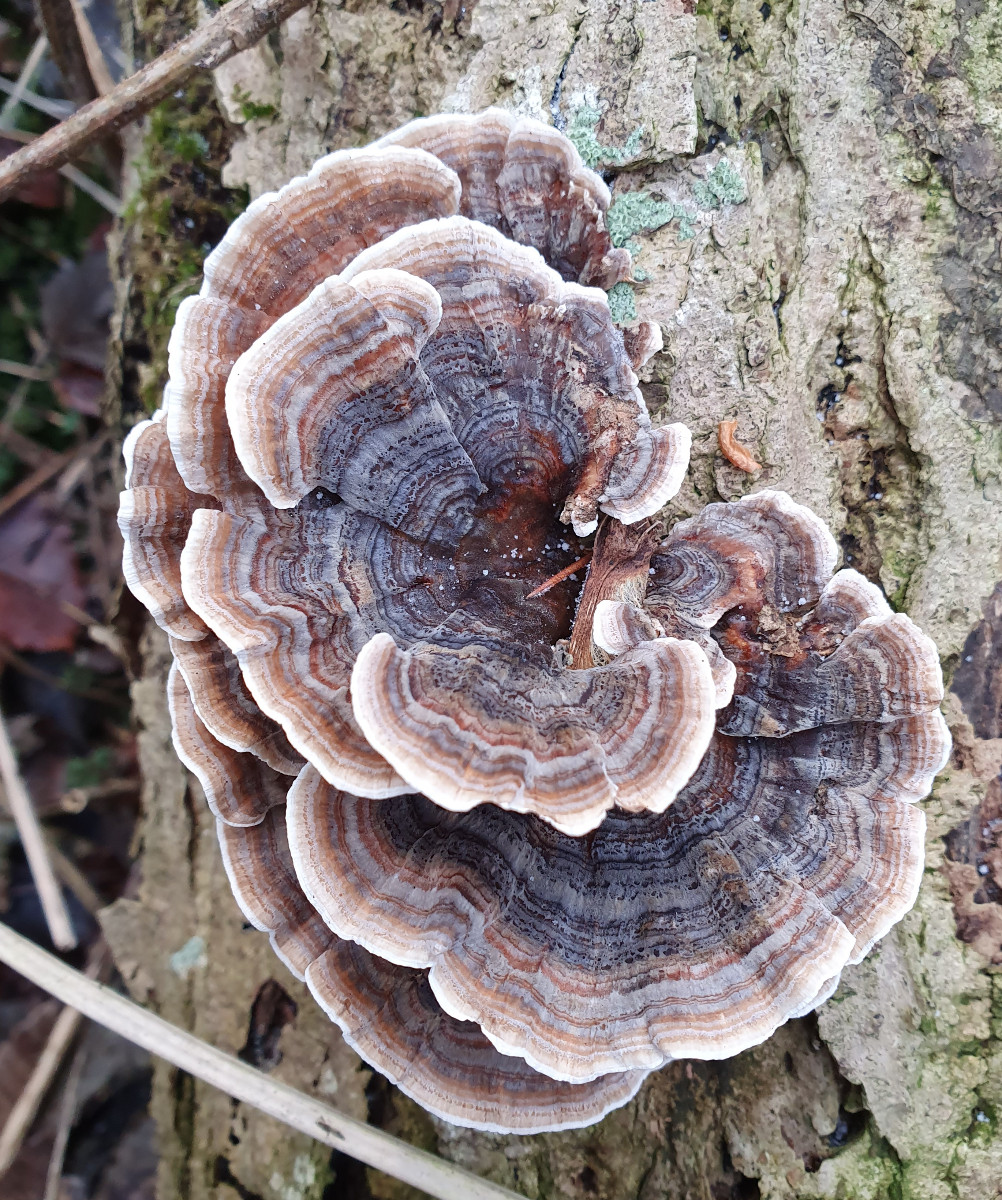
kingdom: Fungi
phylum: Basidiomycota
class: Agaricomycetes
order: Polyporales
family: Polyporaceae
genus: Trametes
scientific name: Trametes versicolor
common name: broget læderporesvamp
